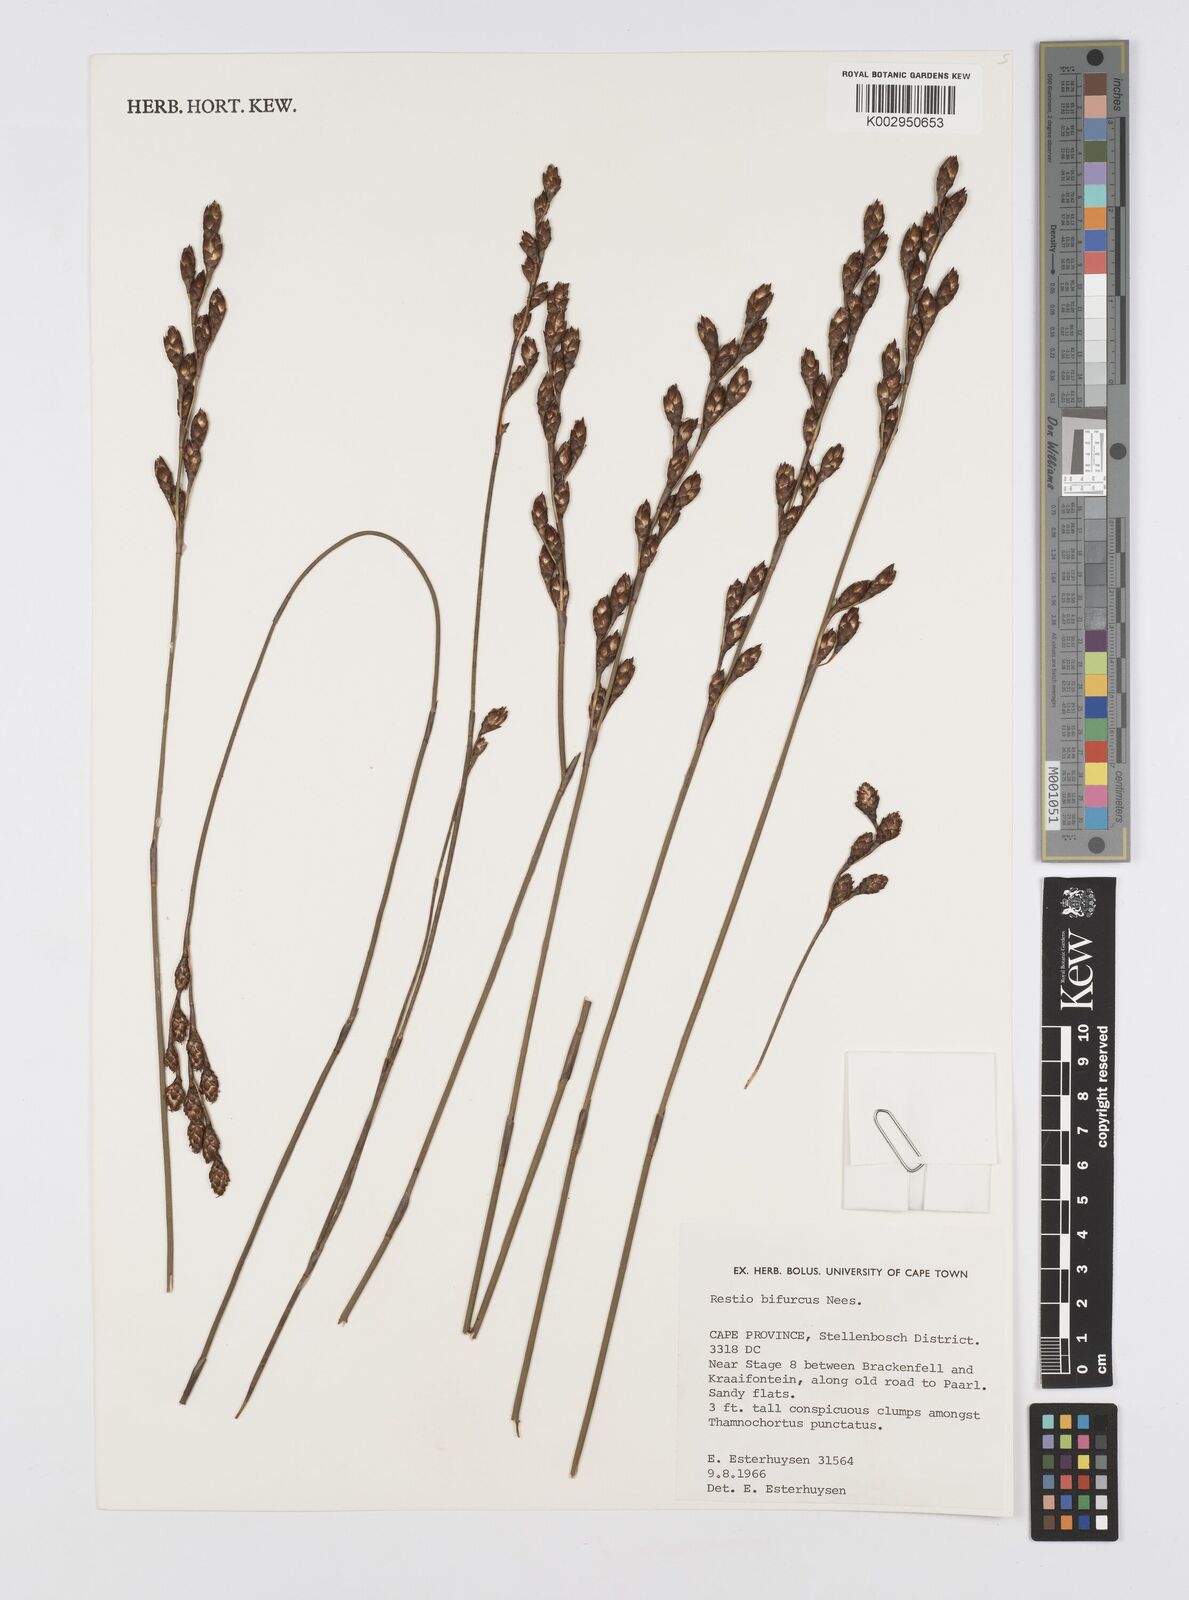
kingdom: Plantae
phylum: Tracheophyta
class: Liliopsida
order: Poales
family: Restionaceae
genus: Restio
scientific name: Restio bifurcus
